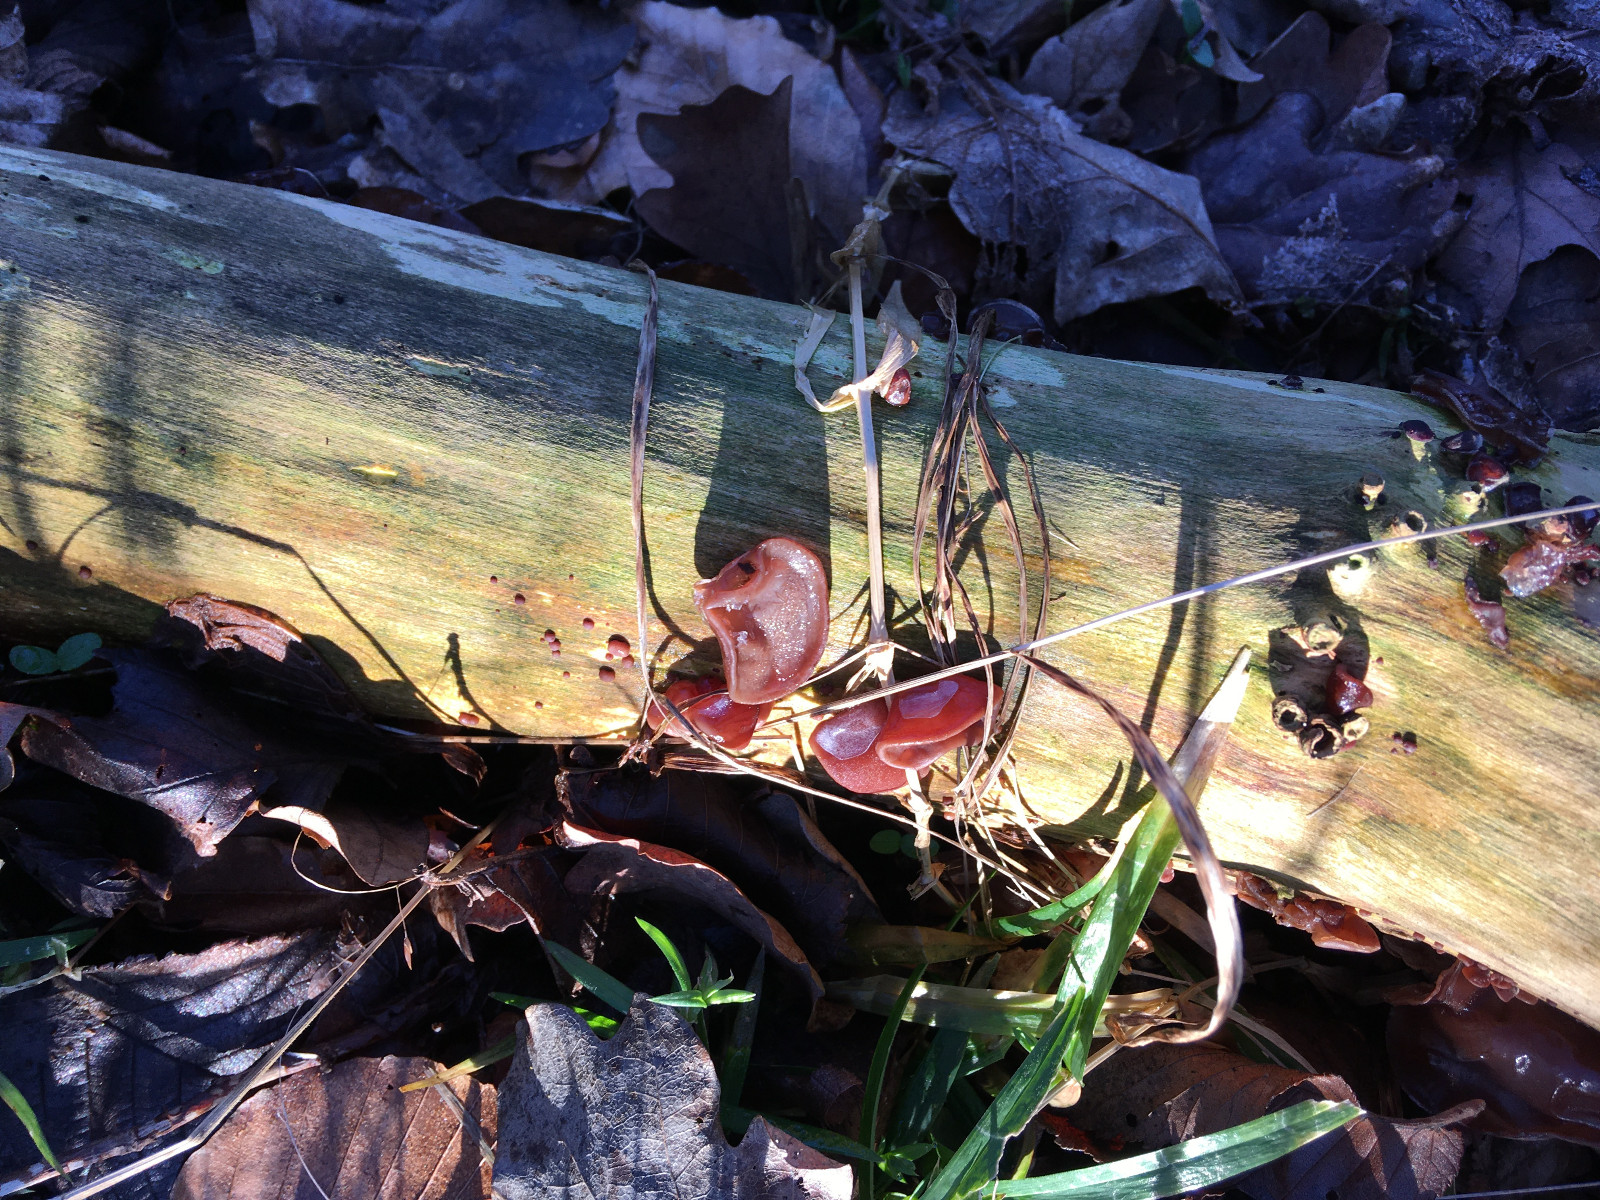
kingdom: Fungi
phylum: Basidiomycota
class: Agaricomycetes
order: Auriculariales
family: Auriculariaceae
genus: Auricularia
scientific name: Auricularia auricula-judae
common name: almindelig judasøre
